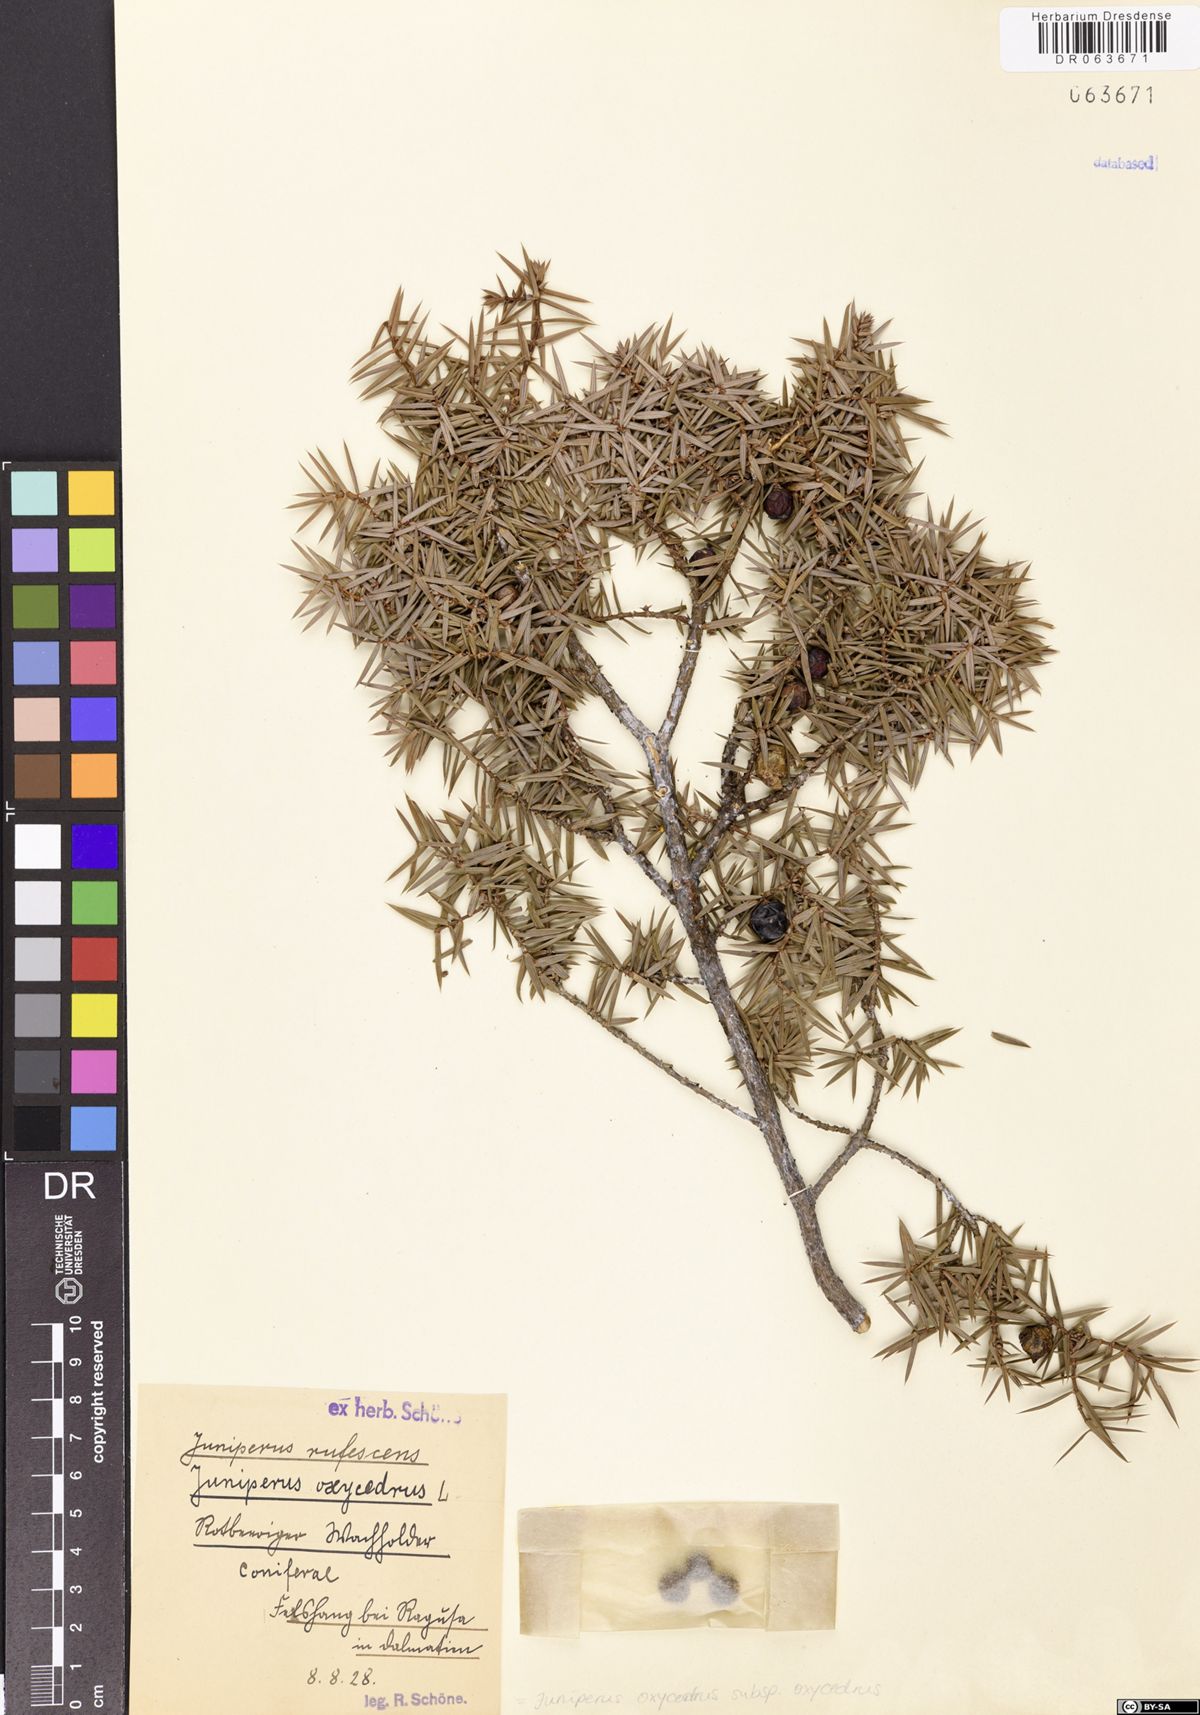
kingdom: Plantae
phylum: Tracheophyta
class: Pinopsida
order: Pinales
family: Cupressaceae
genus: Juniperus
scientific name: Juniperus oxycedrus
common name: Prickly juniper
